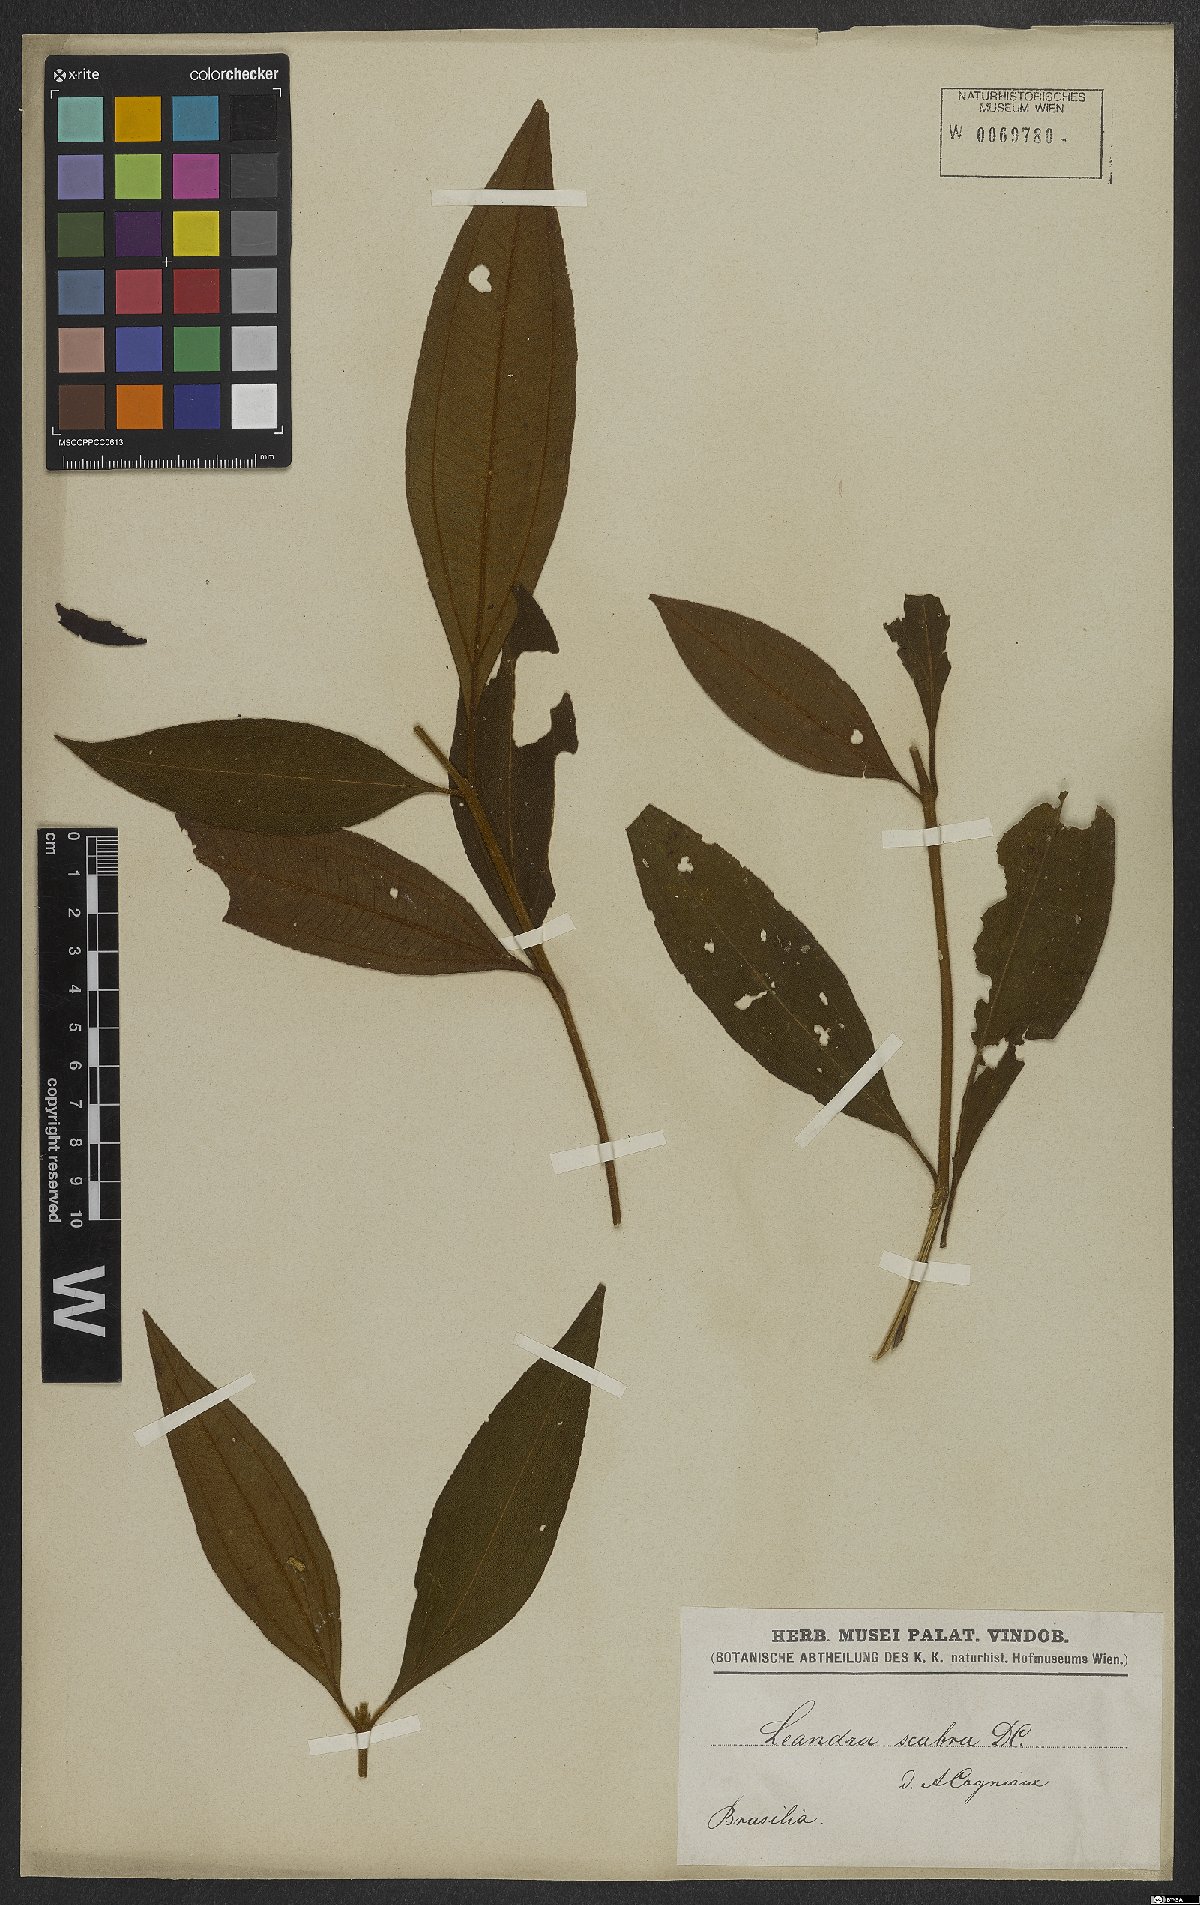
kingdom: Plantae
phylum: Tracheophyta
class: Magnoliopsida
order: Myrtales
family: Melastomataceae
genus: Miconia
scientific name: Miconia melastomoides
